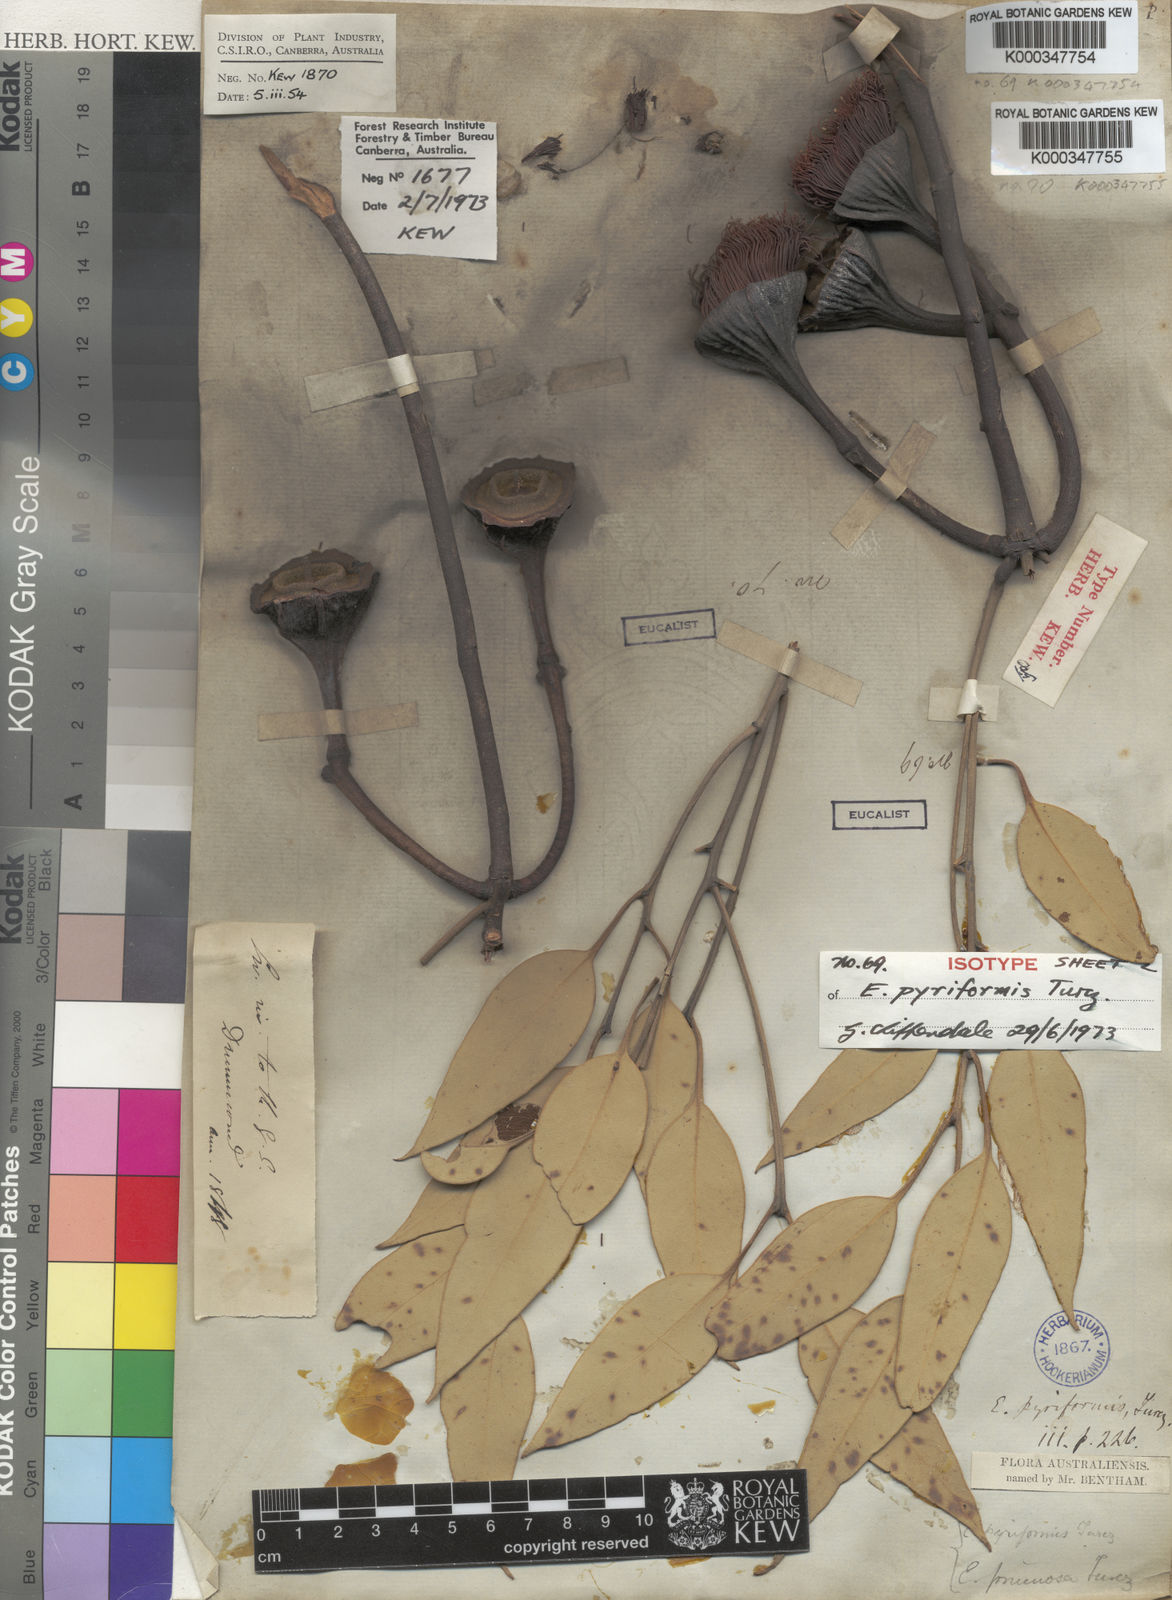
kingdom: Plantae
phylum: Tracheophyta
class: Magnoliopsida
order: Myrtales
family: Myrtaceae
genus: Eucalyptus
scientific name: Eucalyptus pyriformis
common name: Dowerin rose
